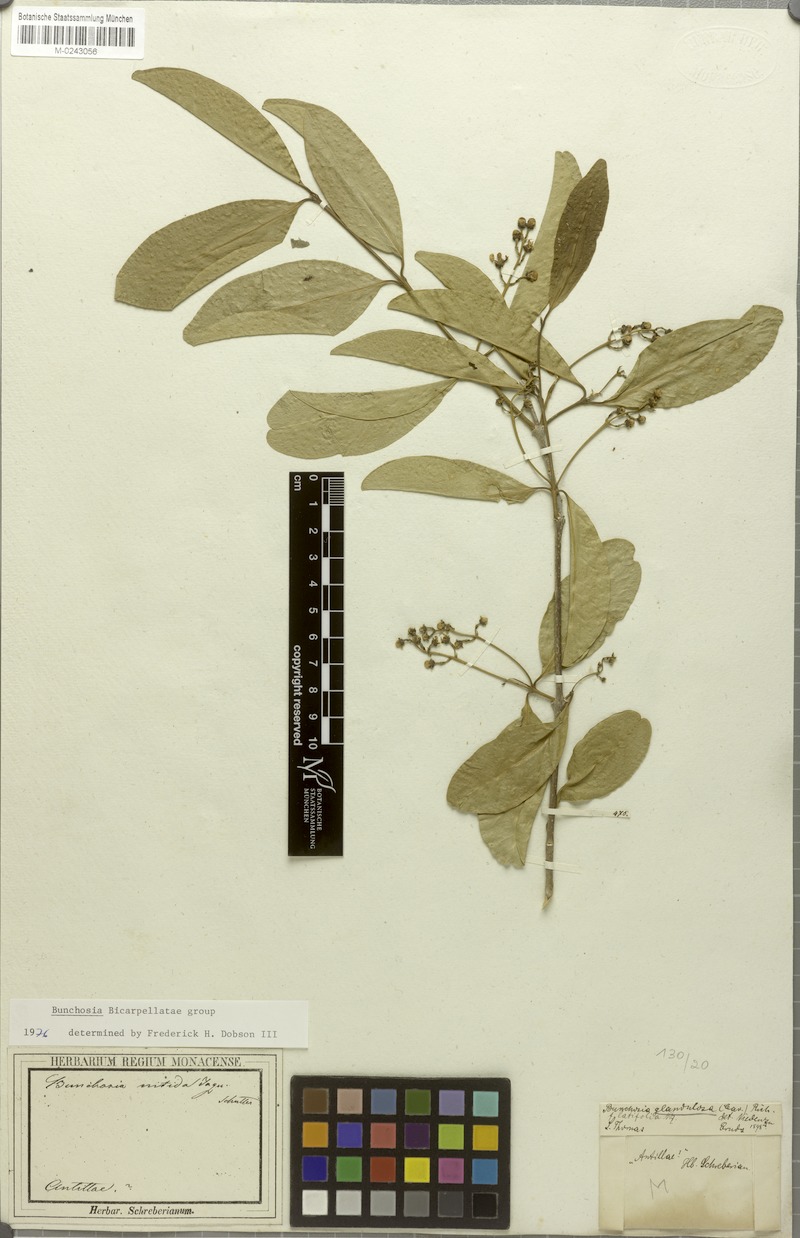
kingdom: Plantae
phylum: Tracheophyta
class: Magnoliopsida
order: Malpighiales
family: Malpighiaceae
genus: Bunchosia
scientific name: Bunchosia glandulosa
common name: Cafe forastero
